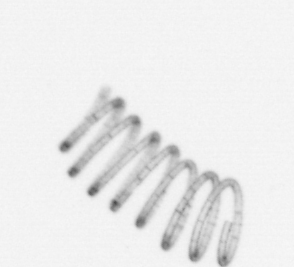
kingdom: Chromista
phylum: Ochrophyta
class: Bacillariophyceae
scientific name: Bacillariophyceae
